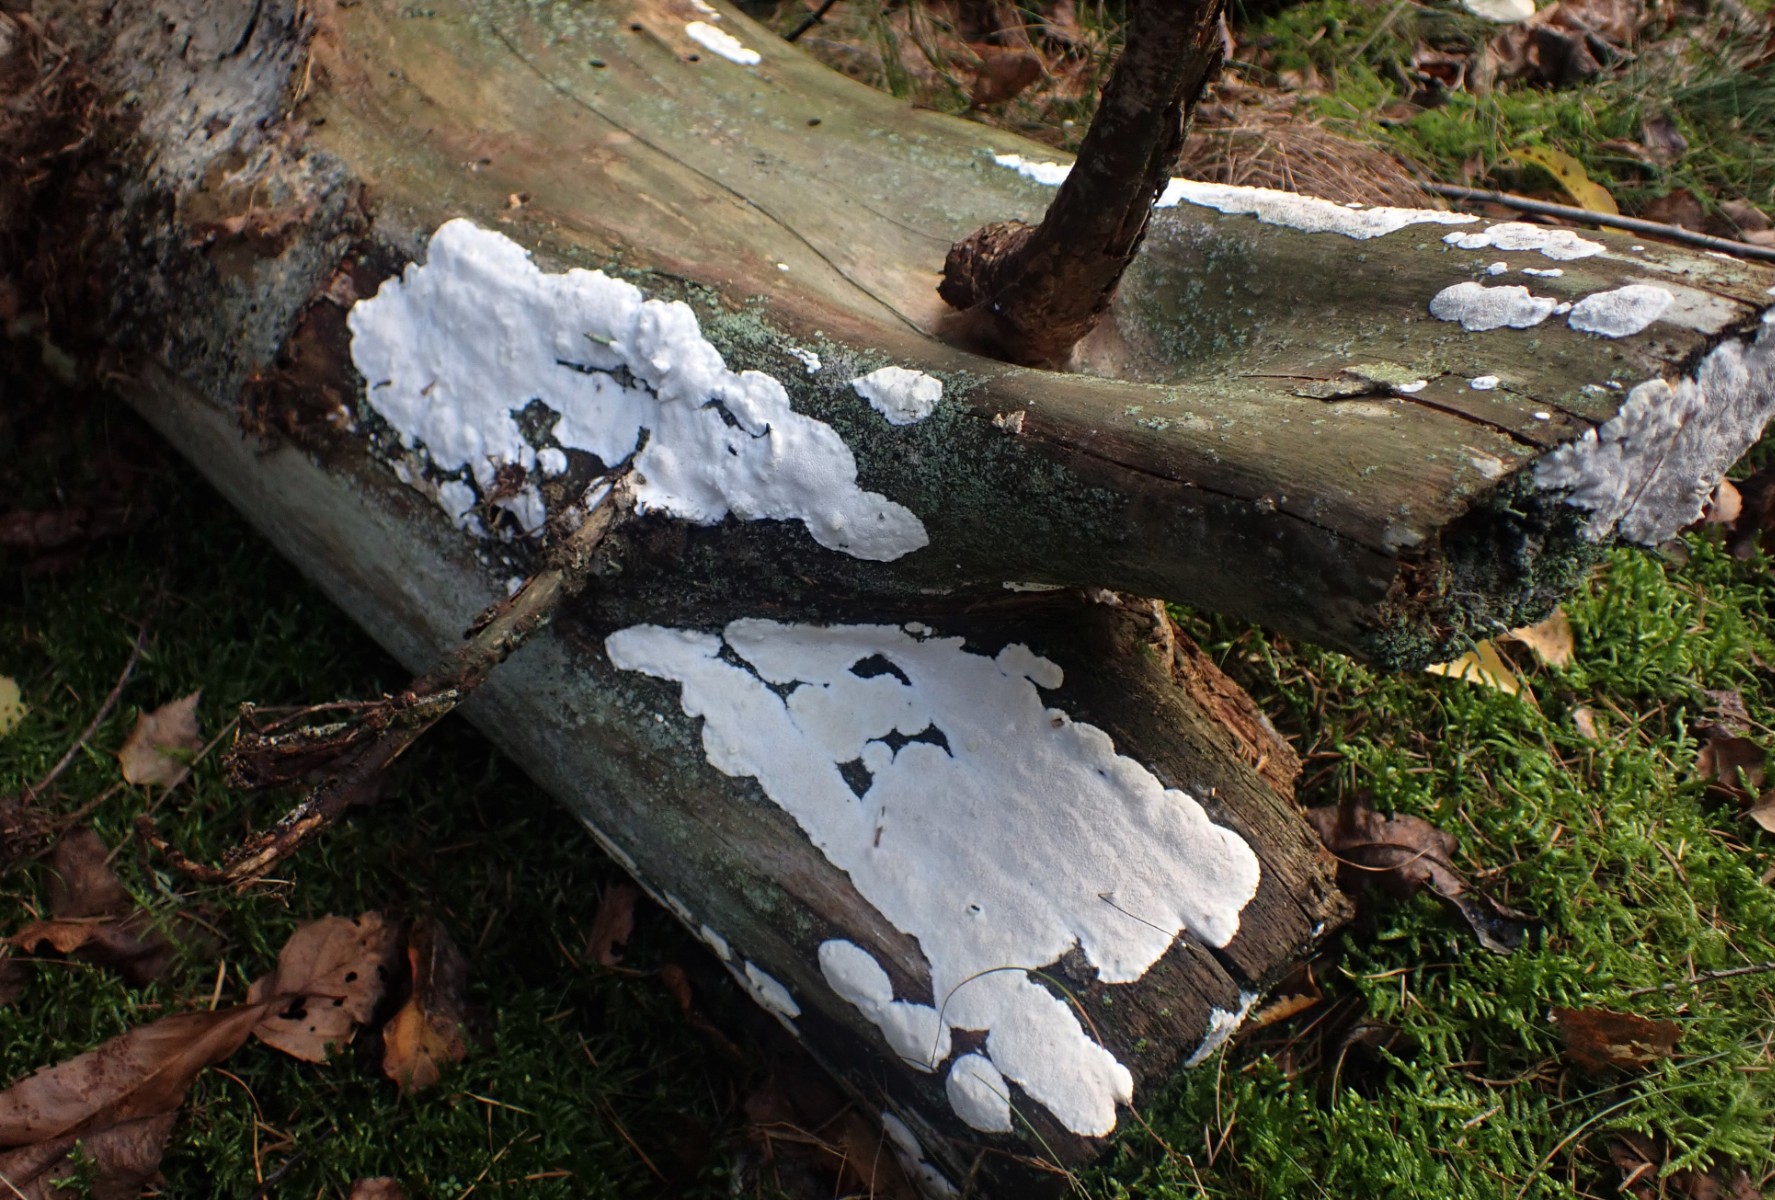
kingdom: Fungi
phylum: Basidiomycota
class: Agaricomycetes
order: Polyporales
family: Gelatoporiaceae
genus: Cinereomyces
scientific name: Cinereomyces lindbladii
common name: almindelig gråporesvamp
